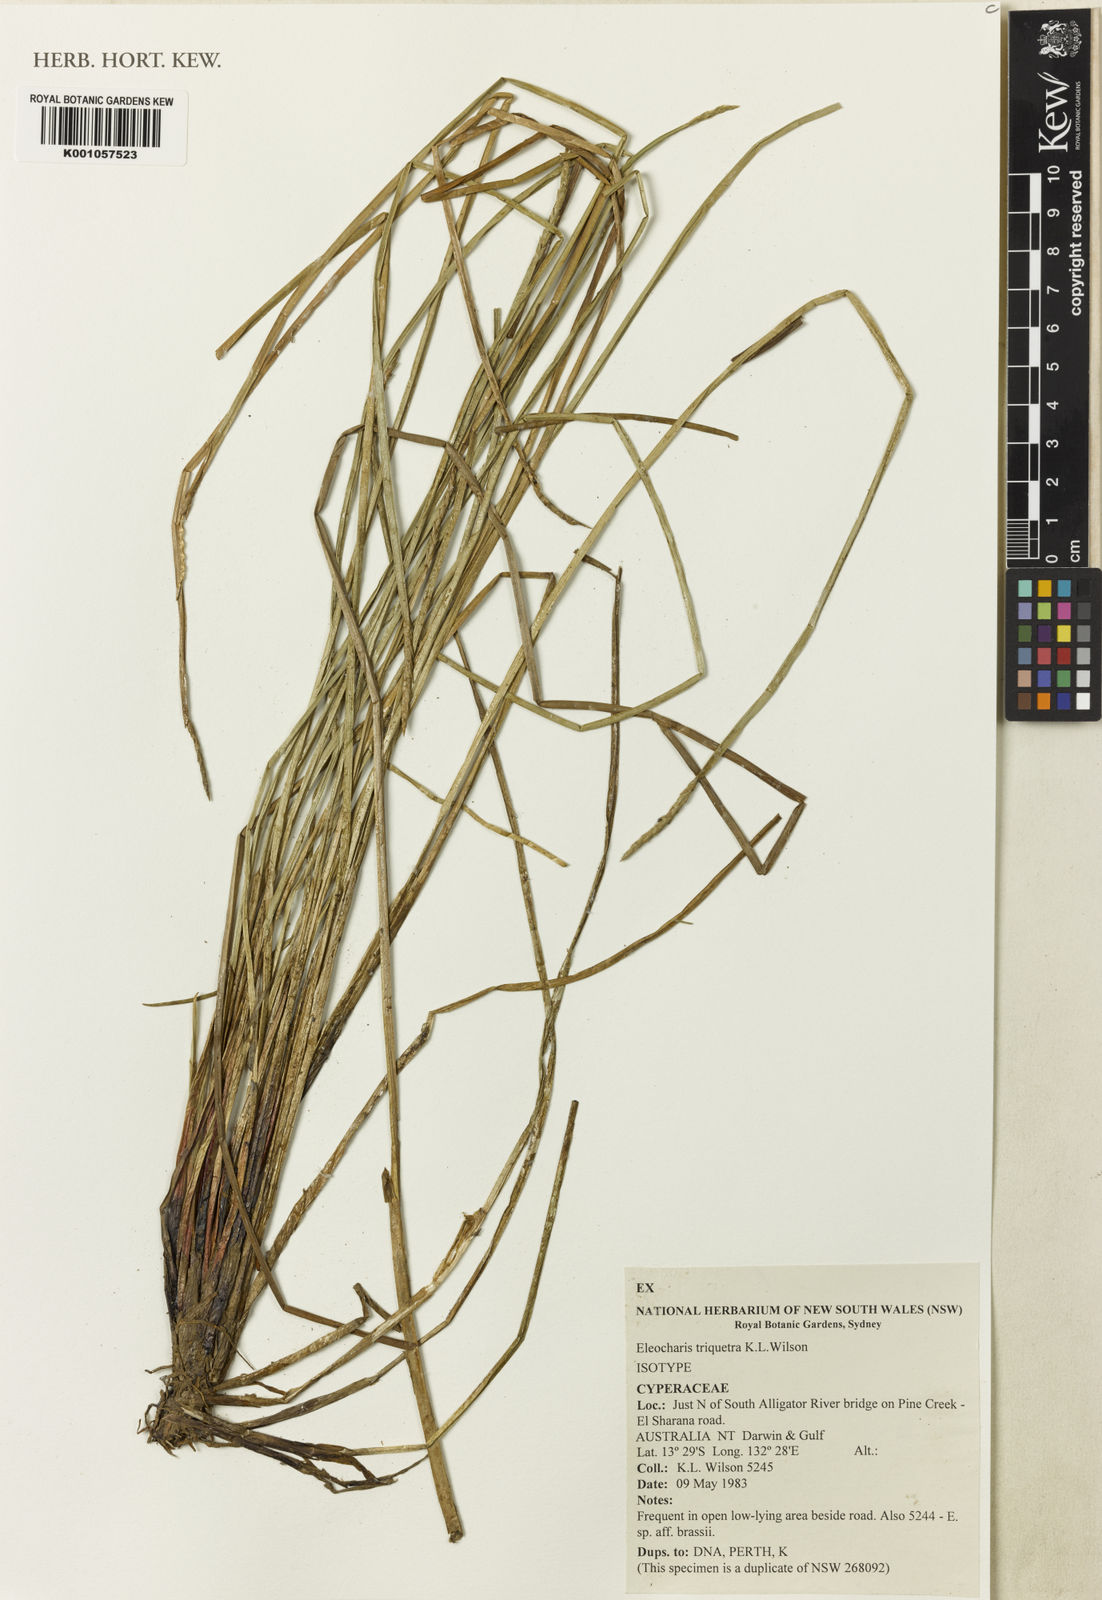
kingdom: Plantae
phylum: Tracheophyta
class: Liliopsida
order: Poales
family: Cyperaceae
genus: Eleocharis
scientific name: Eleocharis triquetra
